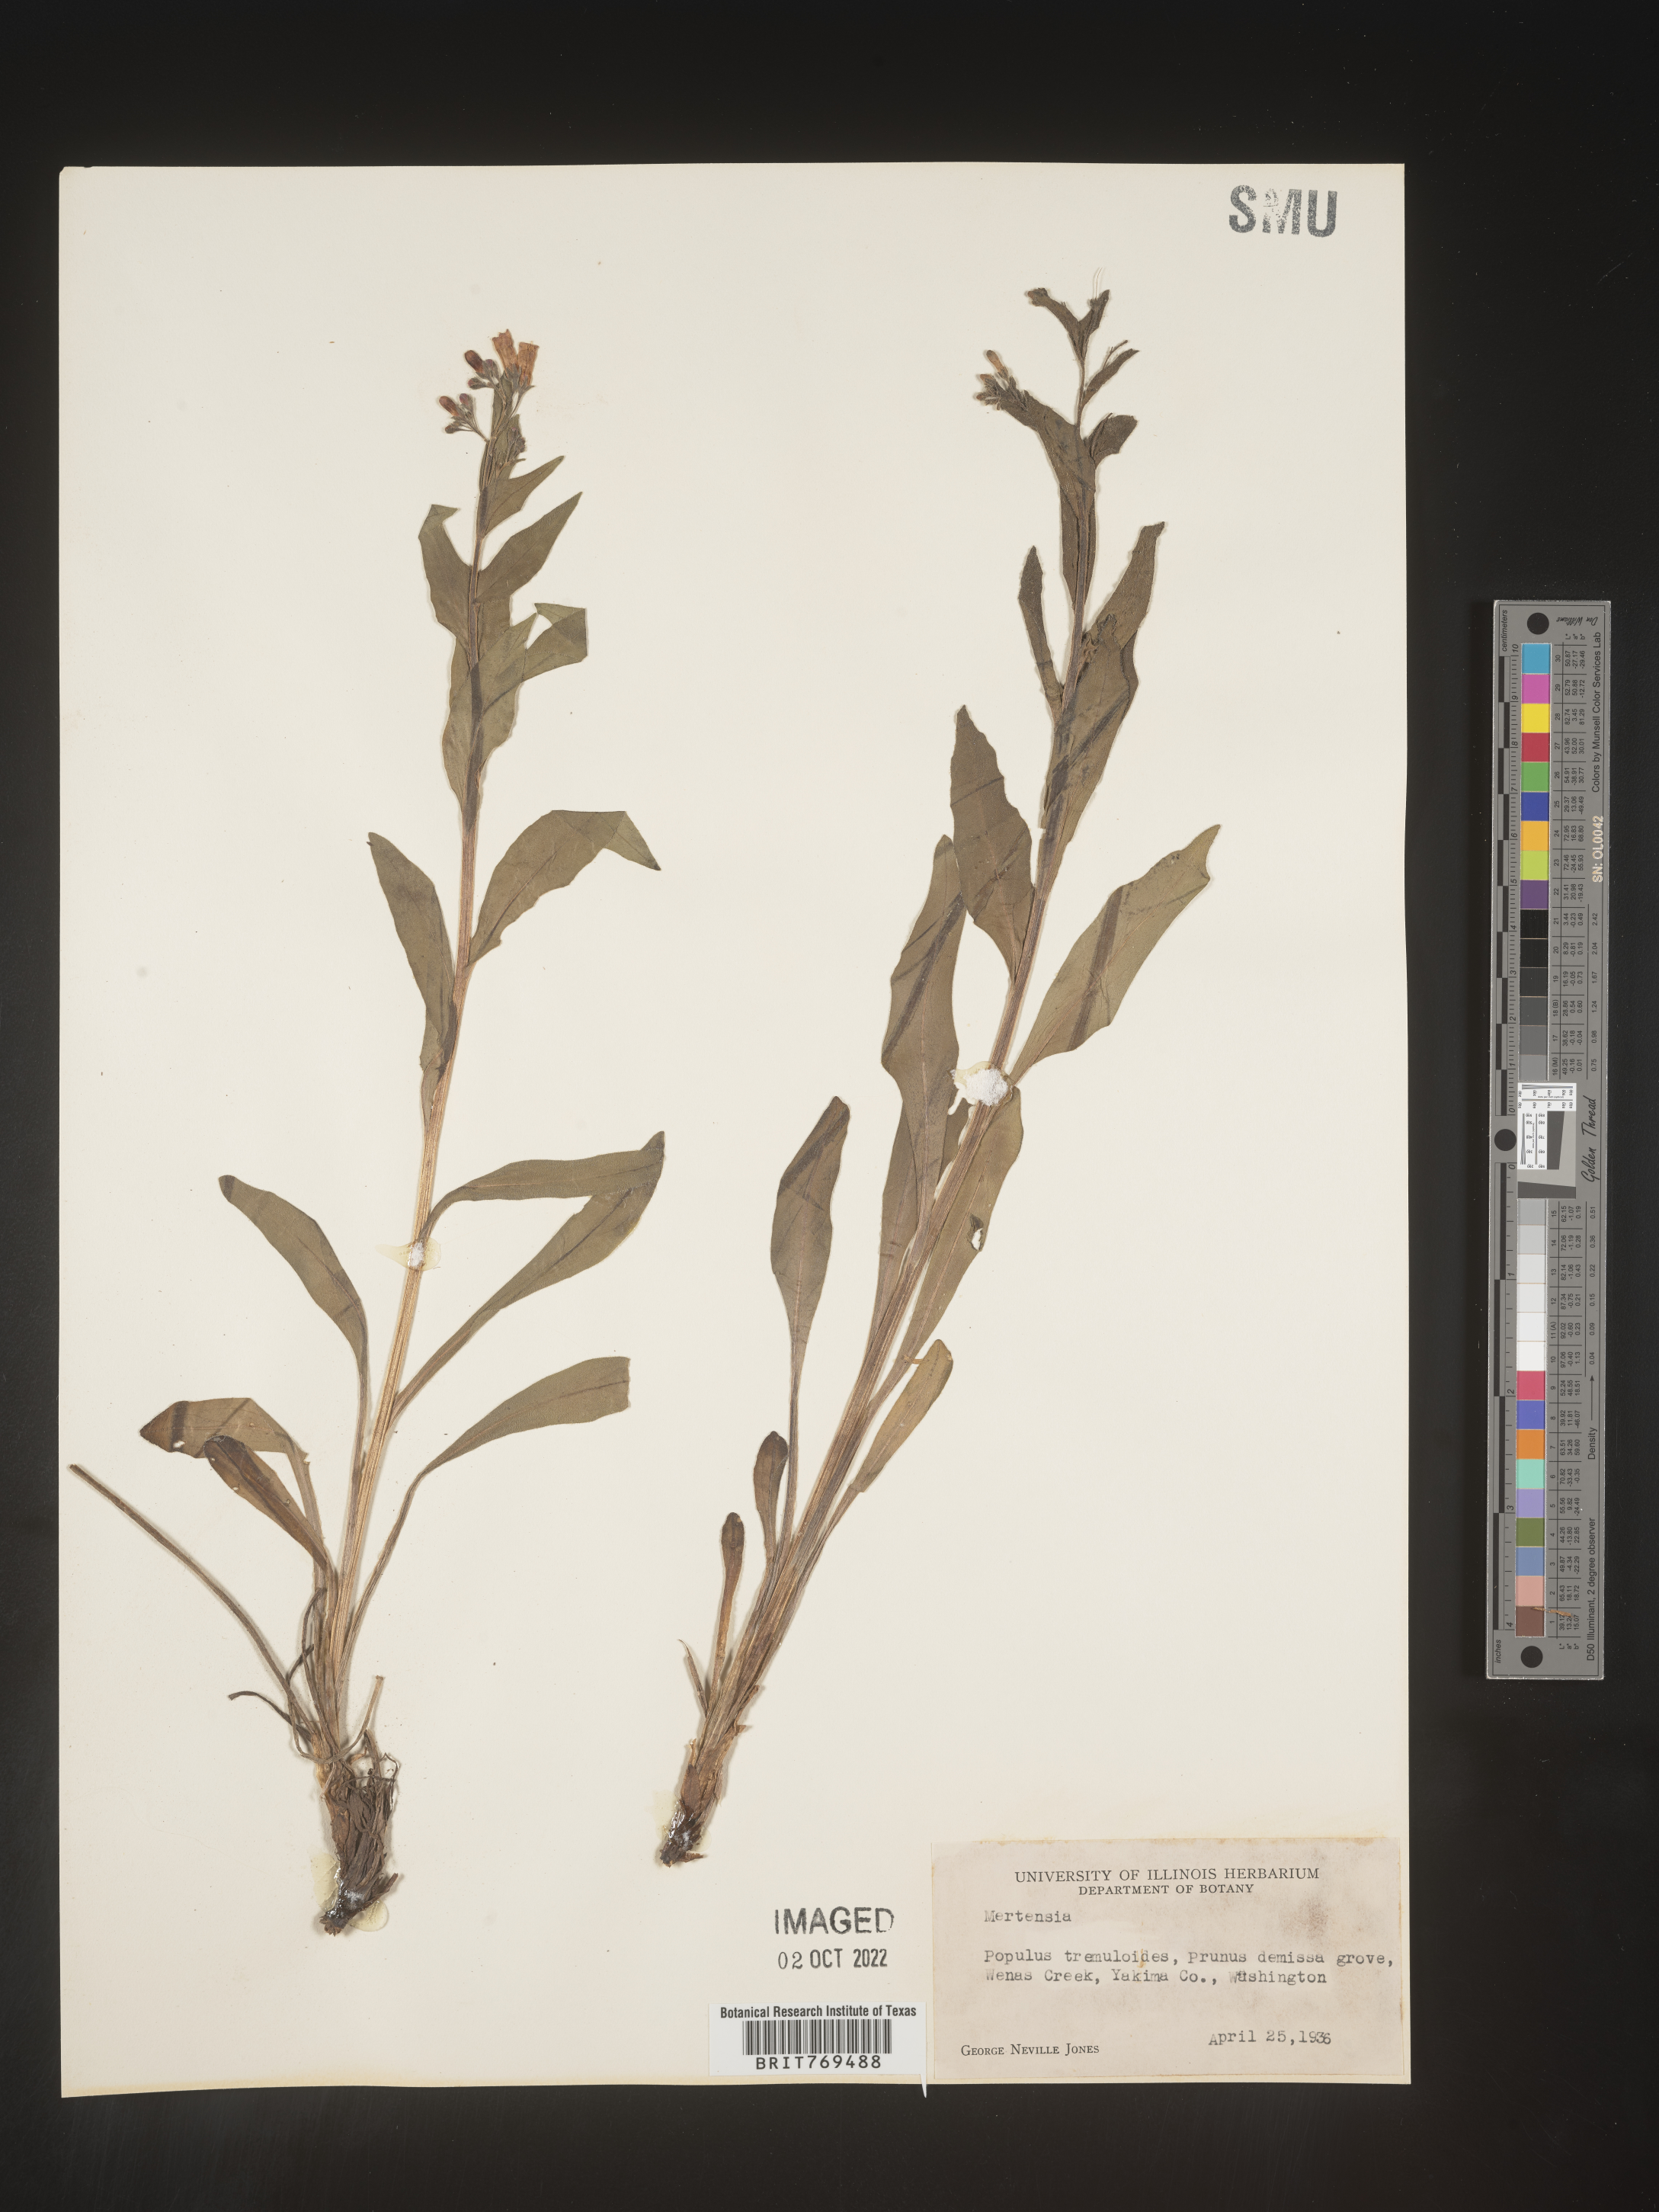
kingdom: Plantae
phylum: Tracheophyta
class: Magnoliopsida
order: Boraginales
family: Boraginaceae
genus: Mertensia
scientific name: Mertensia viridis
